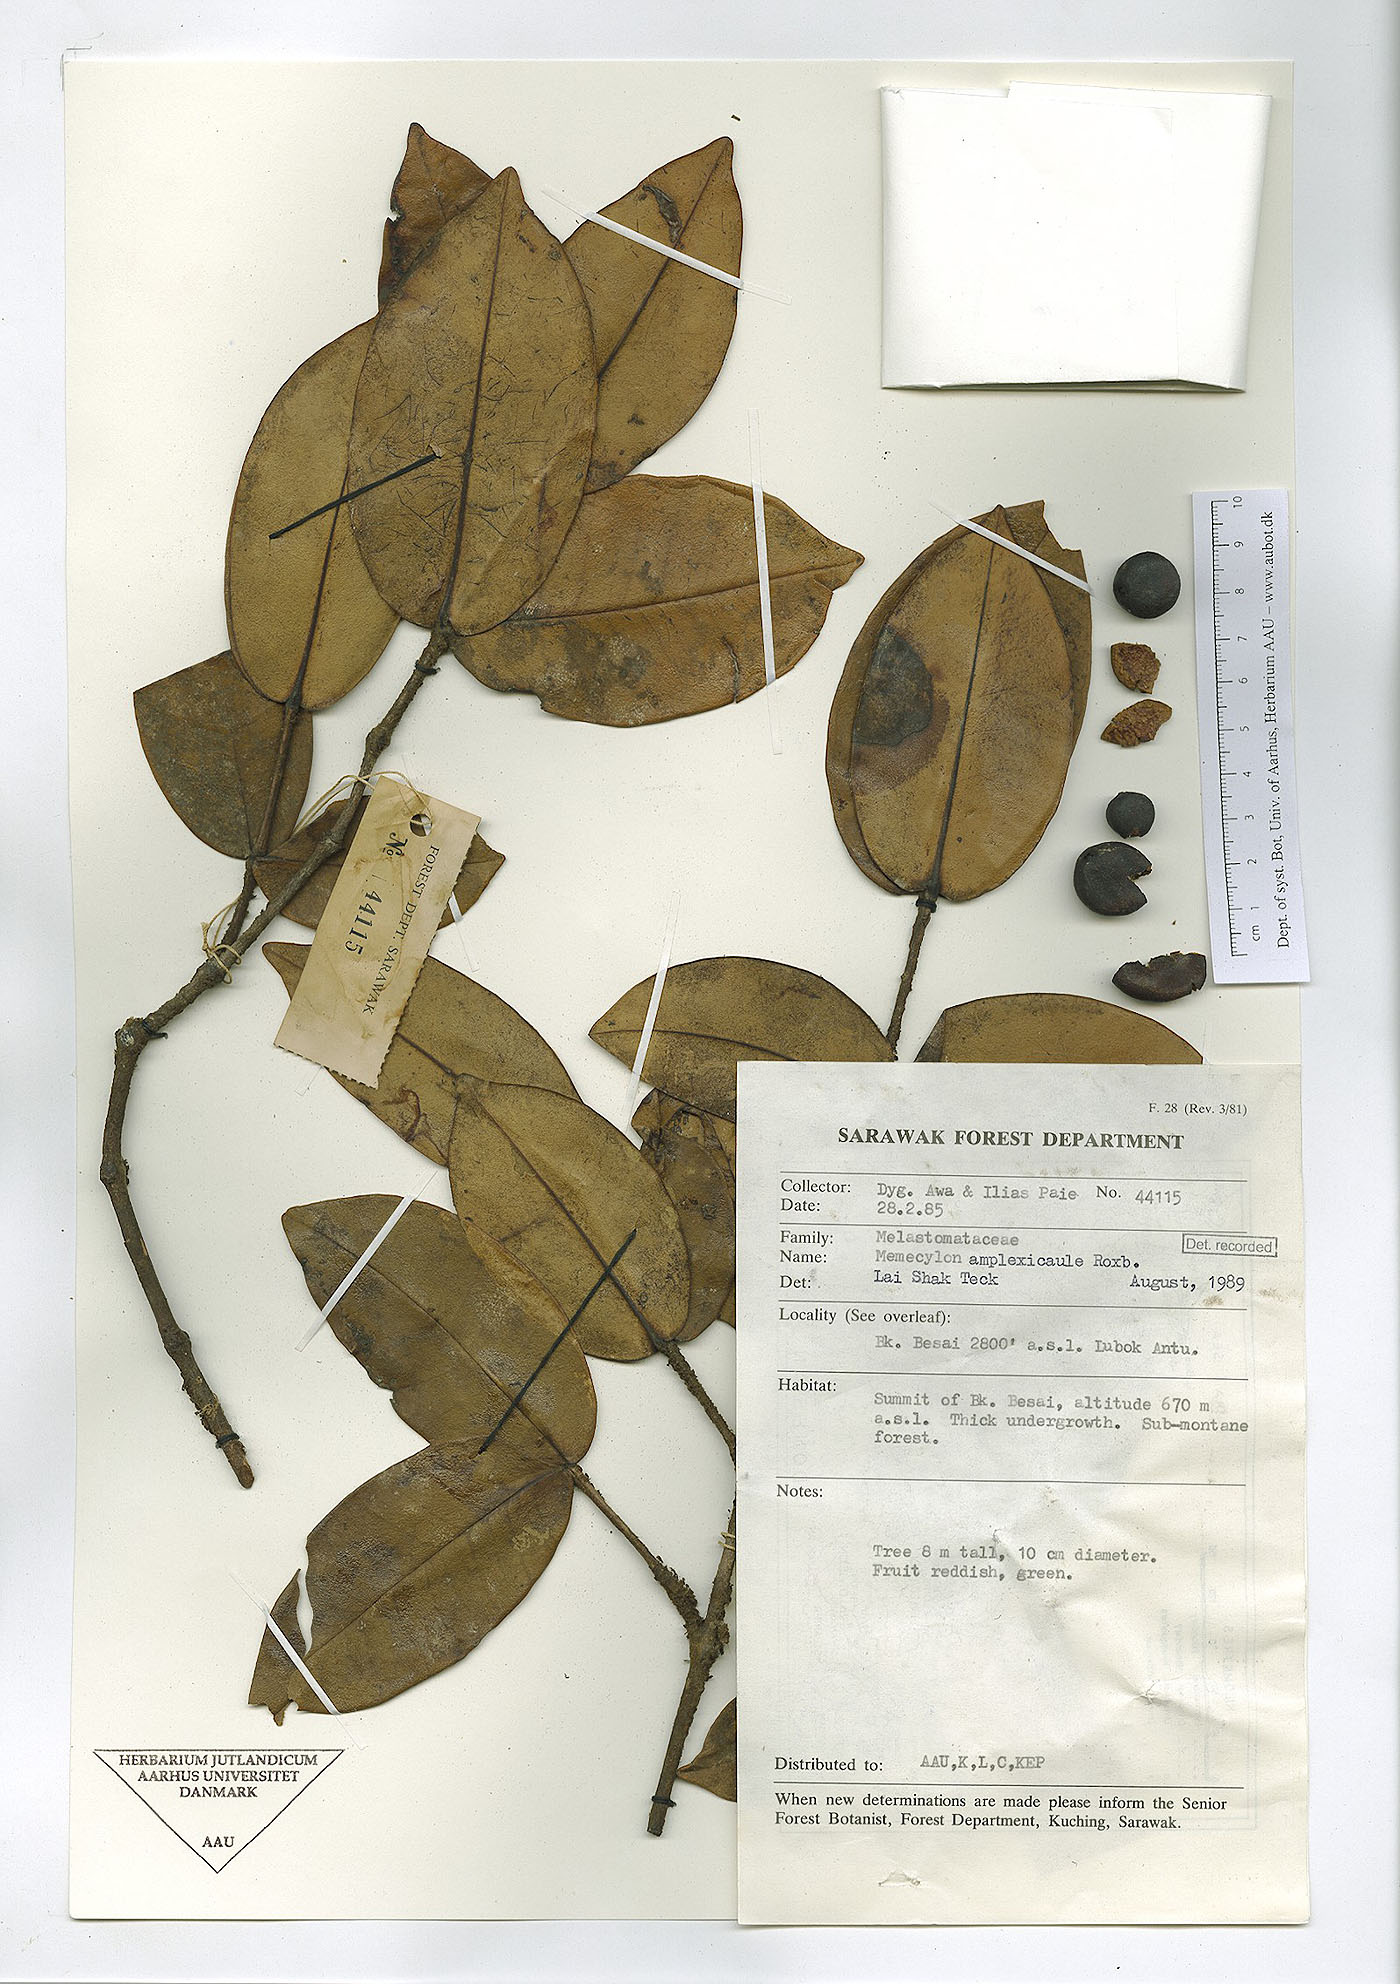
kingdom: Plantae
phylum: Tracheophyta
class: Magnoliopsida
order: Myrtales
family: Melastomataceae
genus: Memecylon
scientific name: Memecylon amplexicaule
